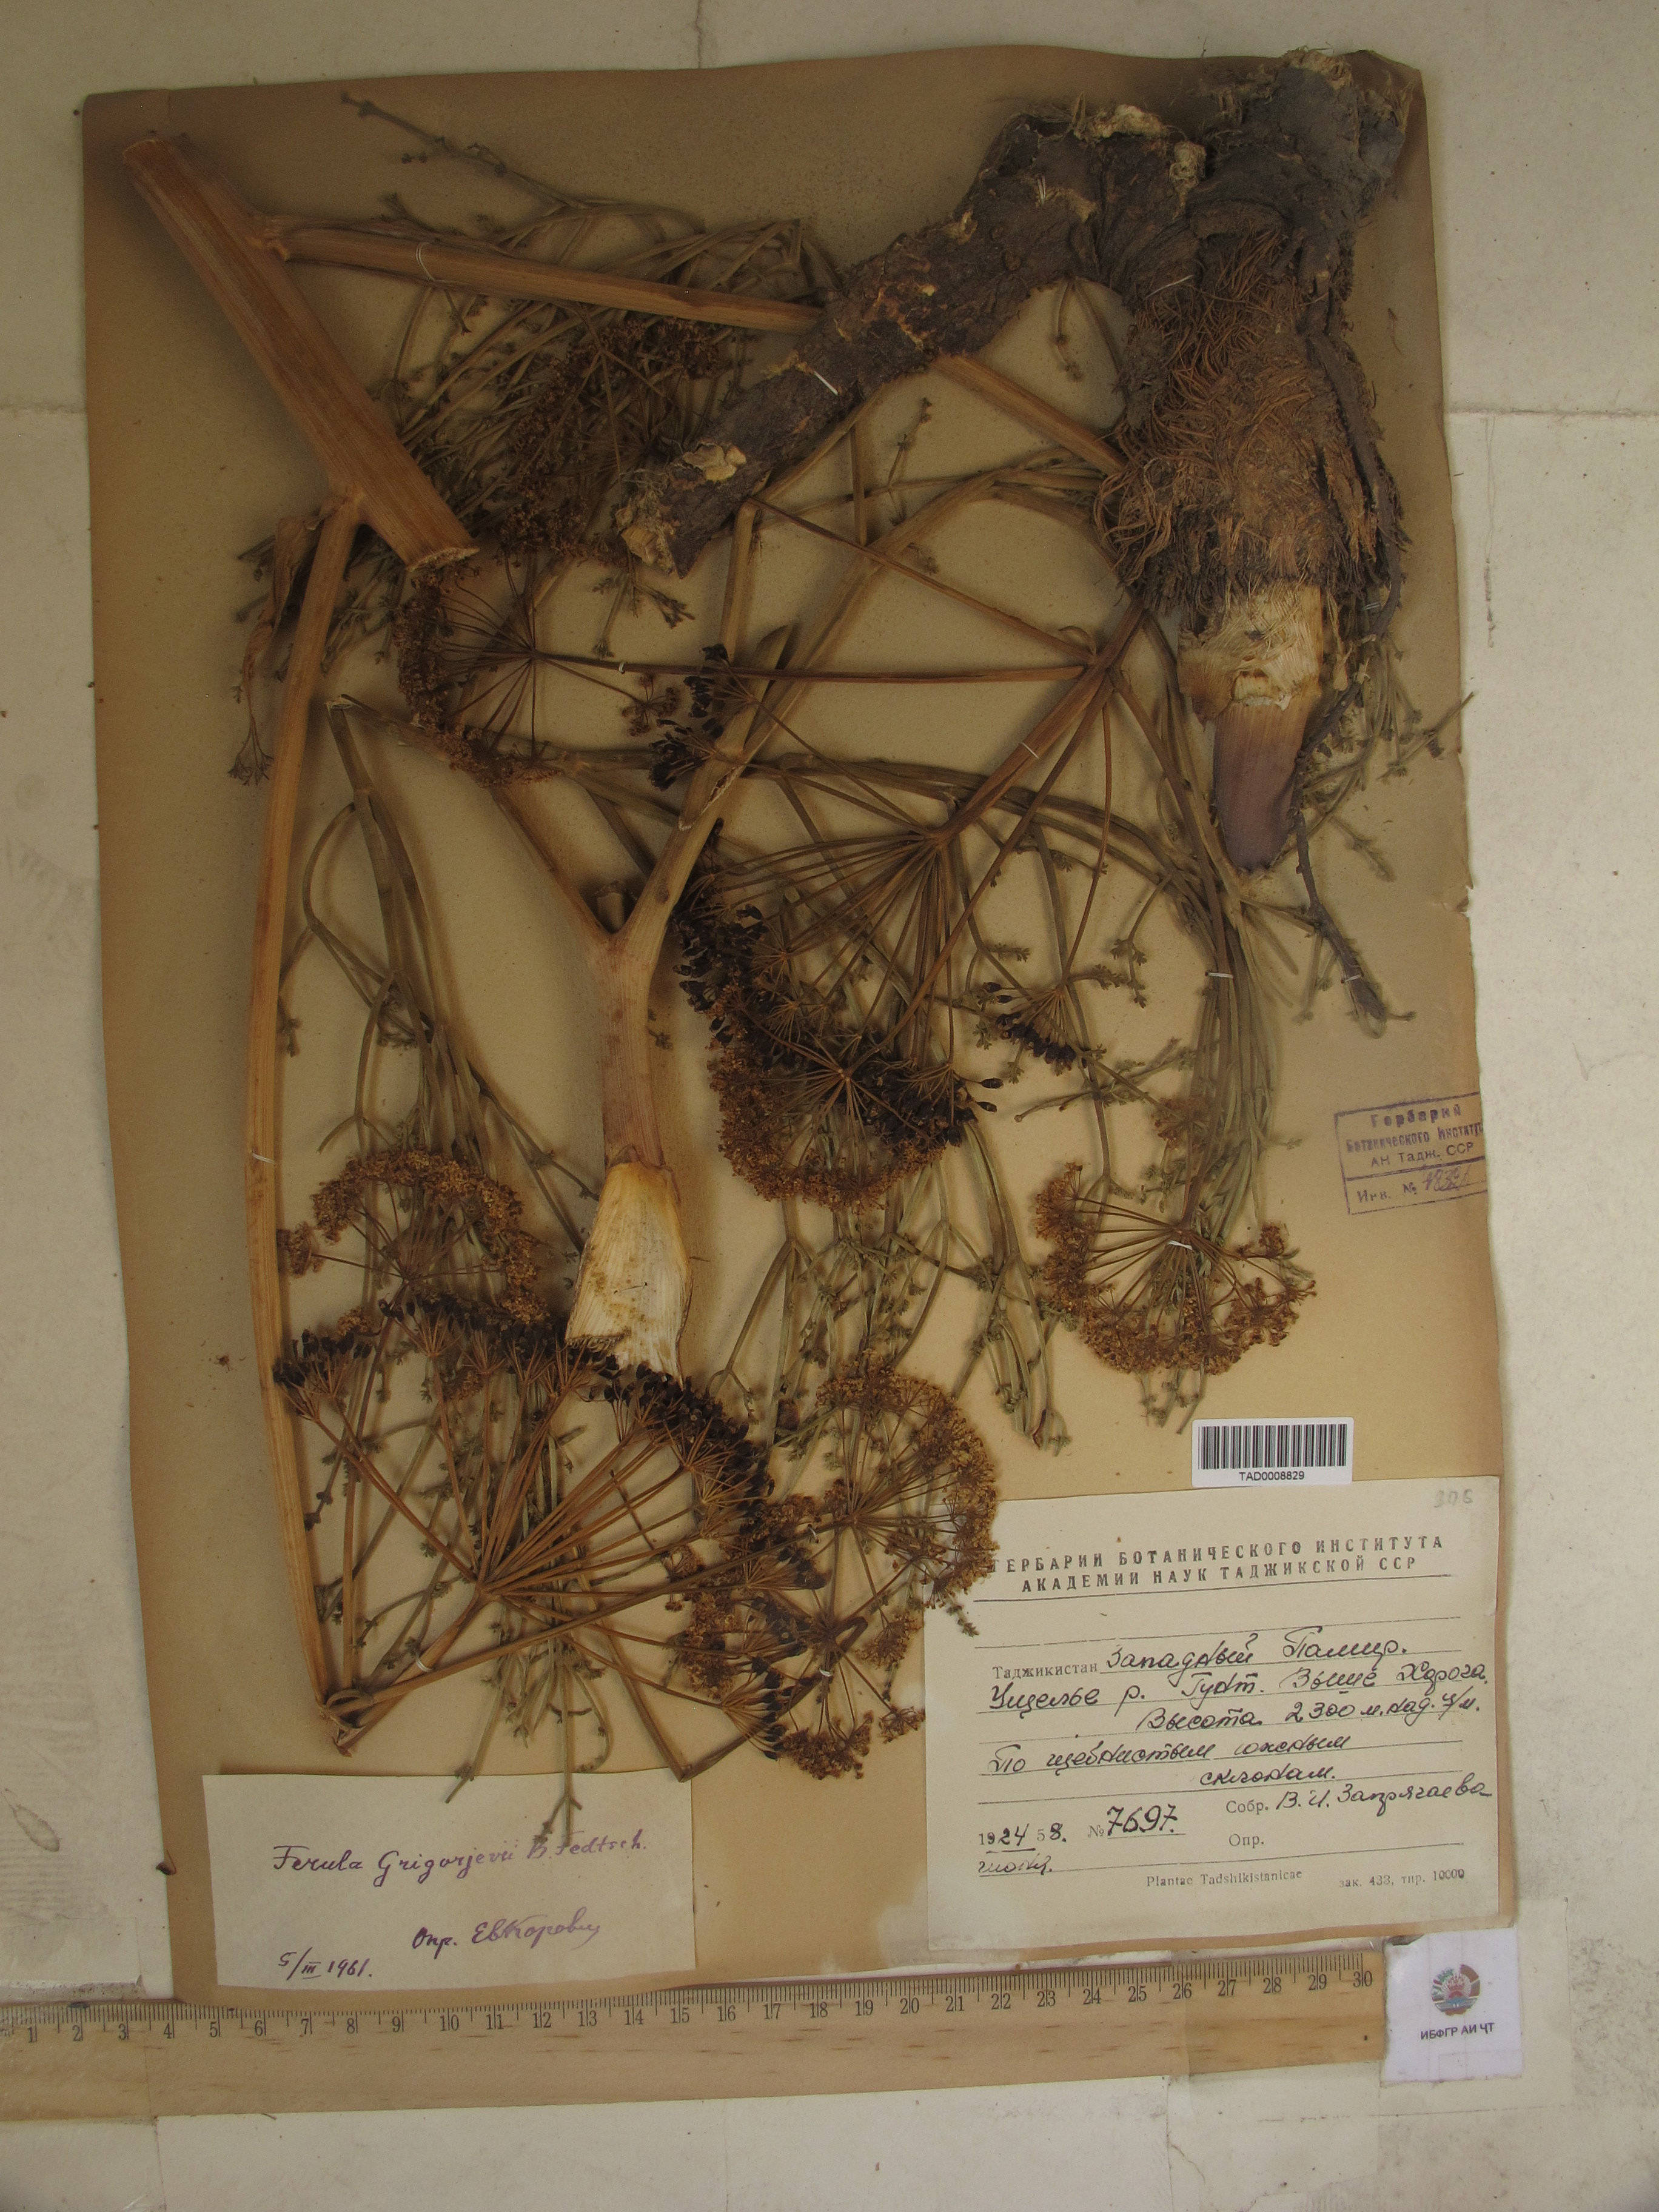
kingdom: Plantae
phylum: Tracheophyta
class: Magnoliopsida
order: Apiales
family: Apiaceae
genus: Ferula
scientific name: Ferula grigoriewii
